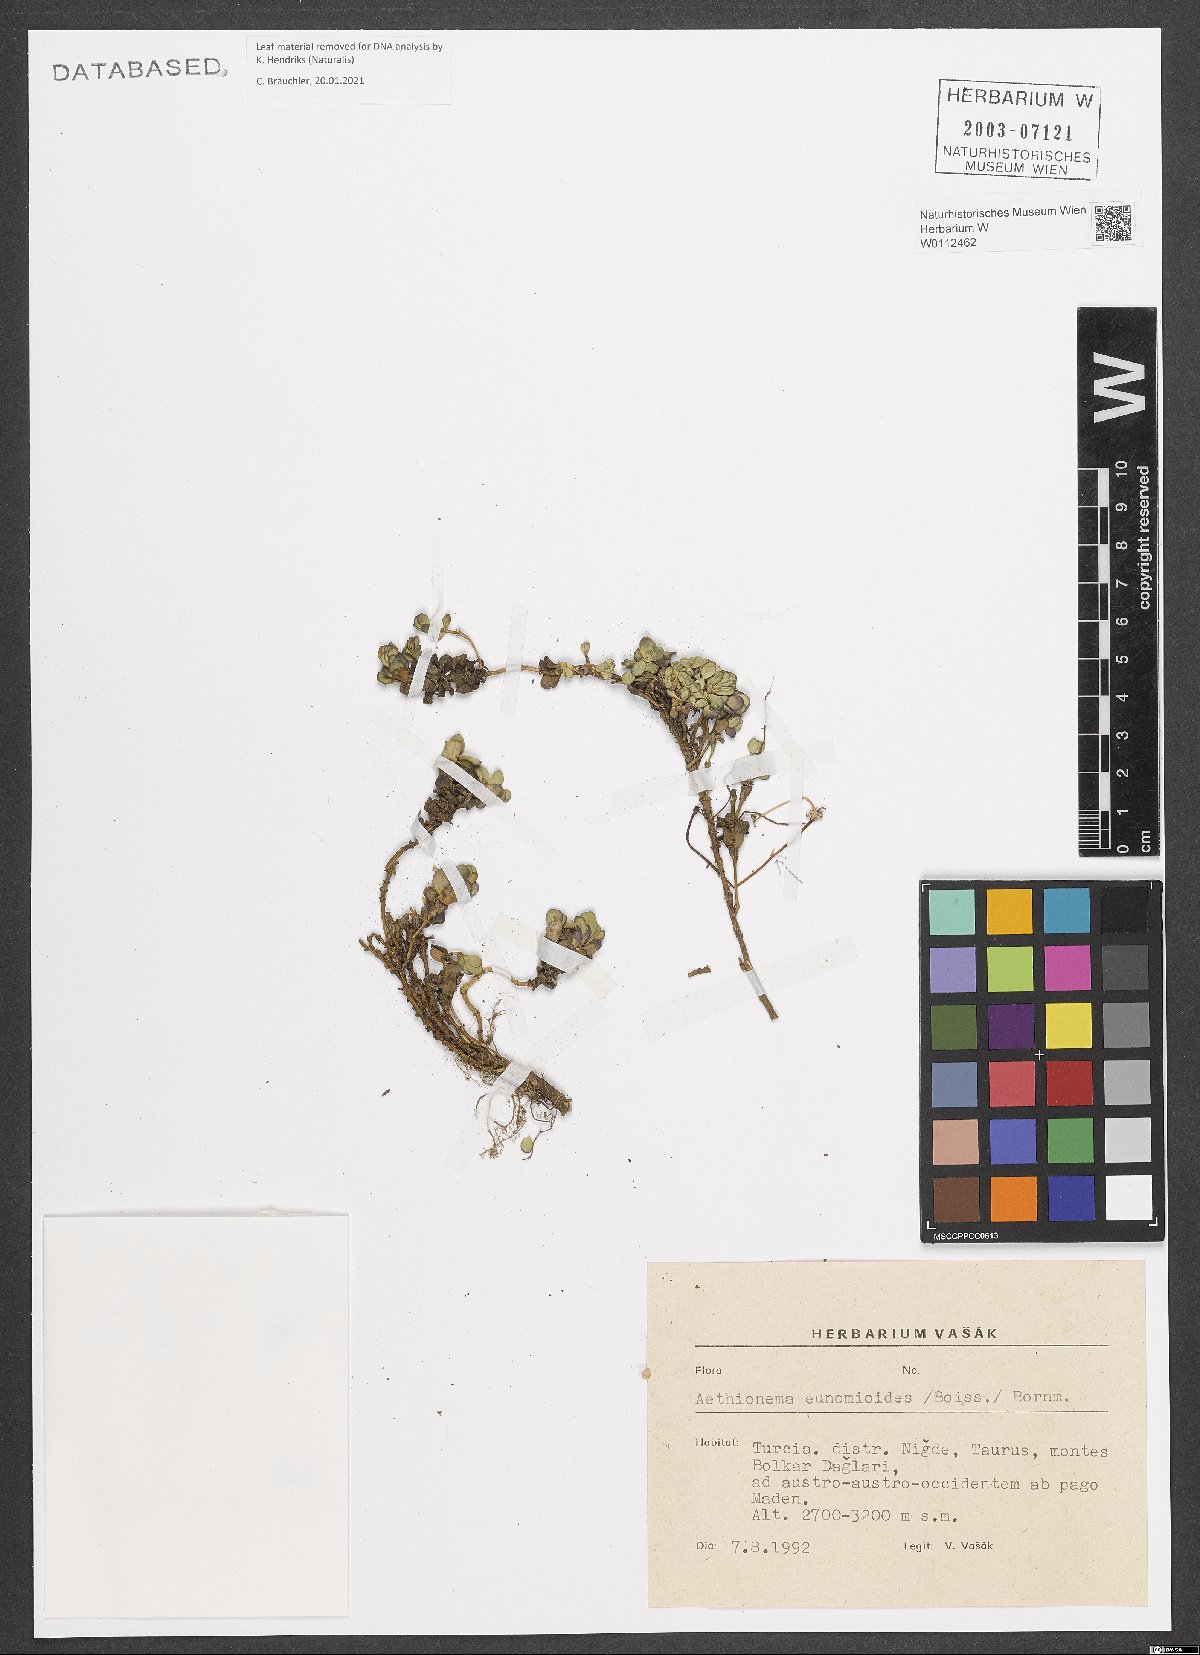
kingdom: Plantae
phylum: Tracheophyta
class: Magnoliopsida
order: Brassicales
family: Brassicaceae
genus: Aethionema
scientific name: Aethionema eunomioides
